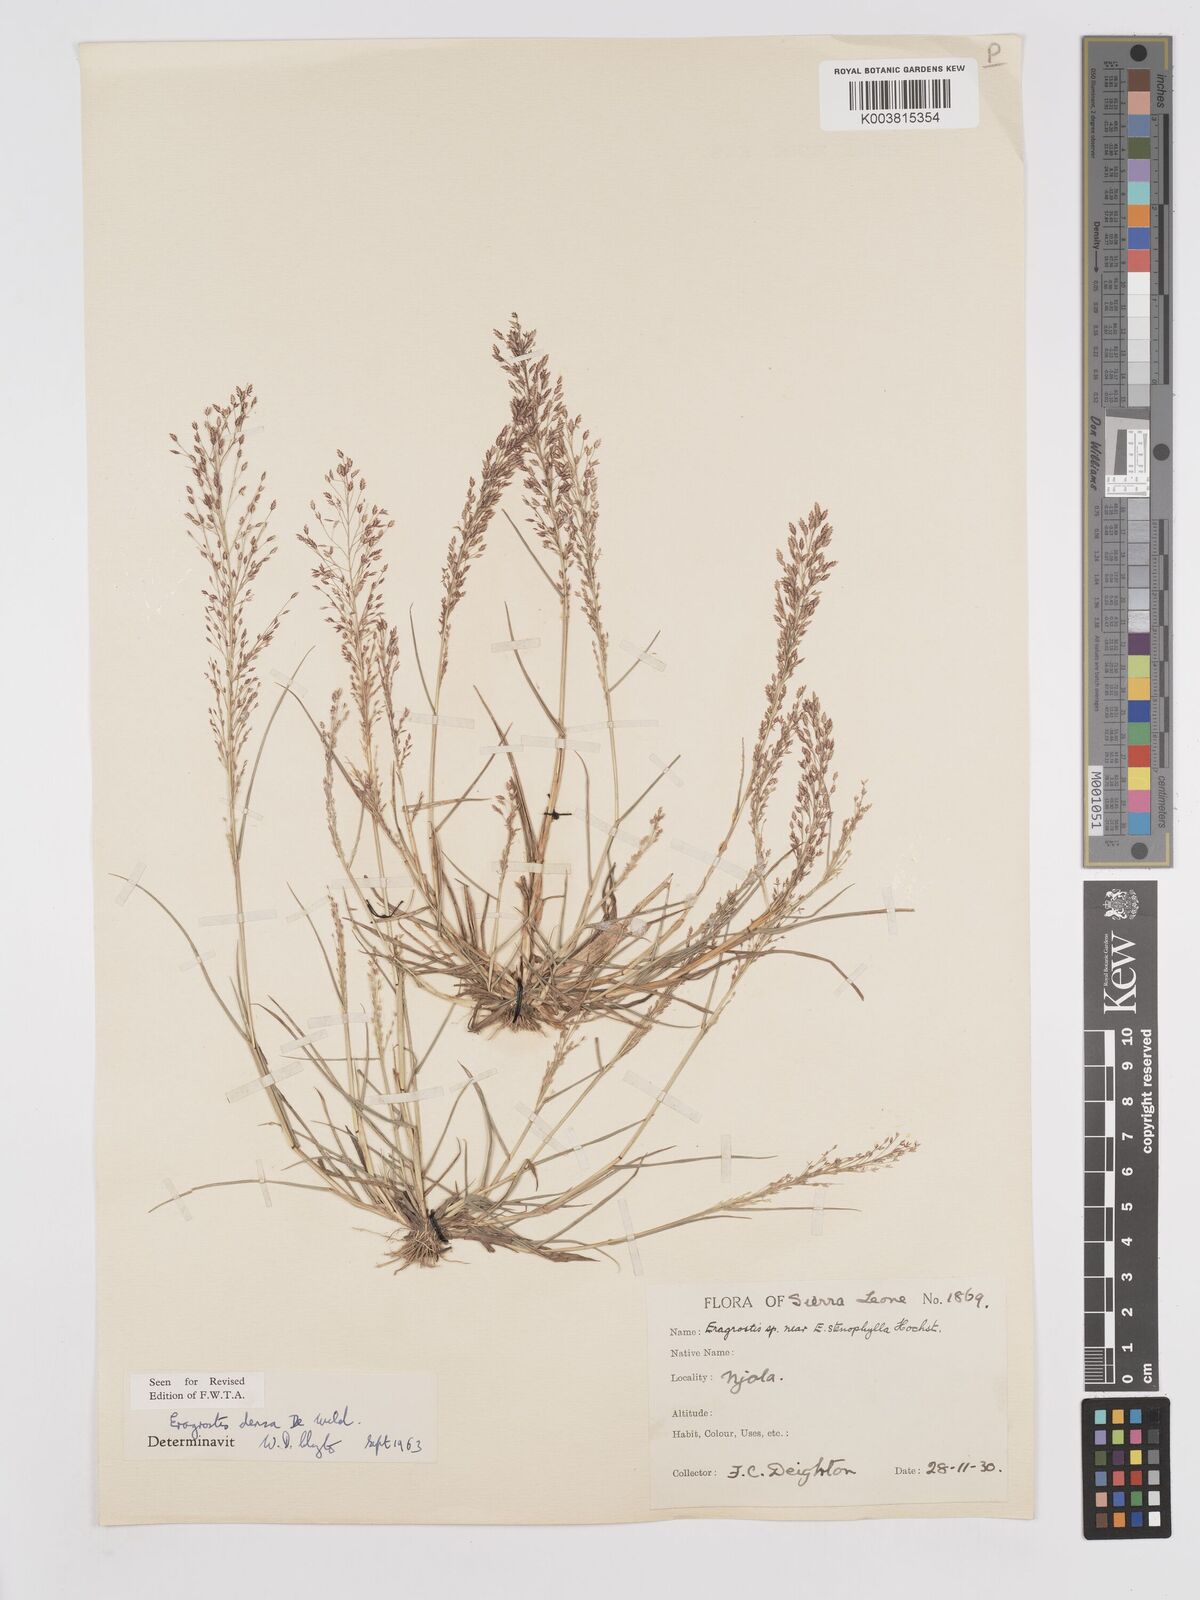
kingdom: Plantae
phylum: Tracheophyta
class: Liliopsida
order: Poales
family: Poaceae
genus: Eragrostis
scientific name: Eragrostis welwitschii
